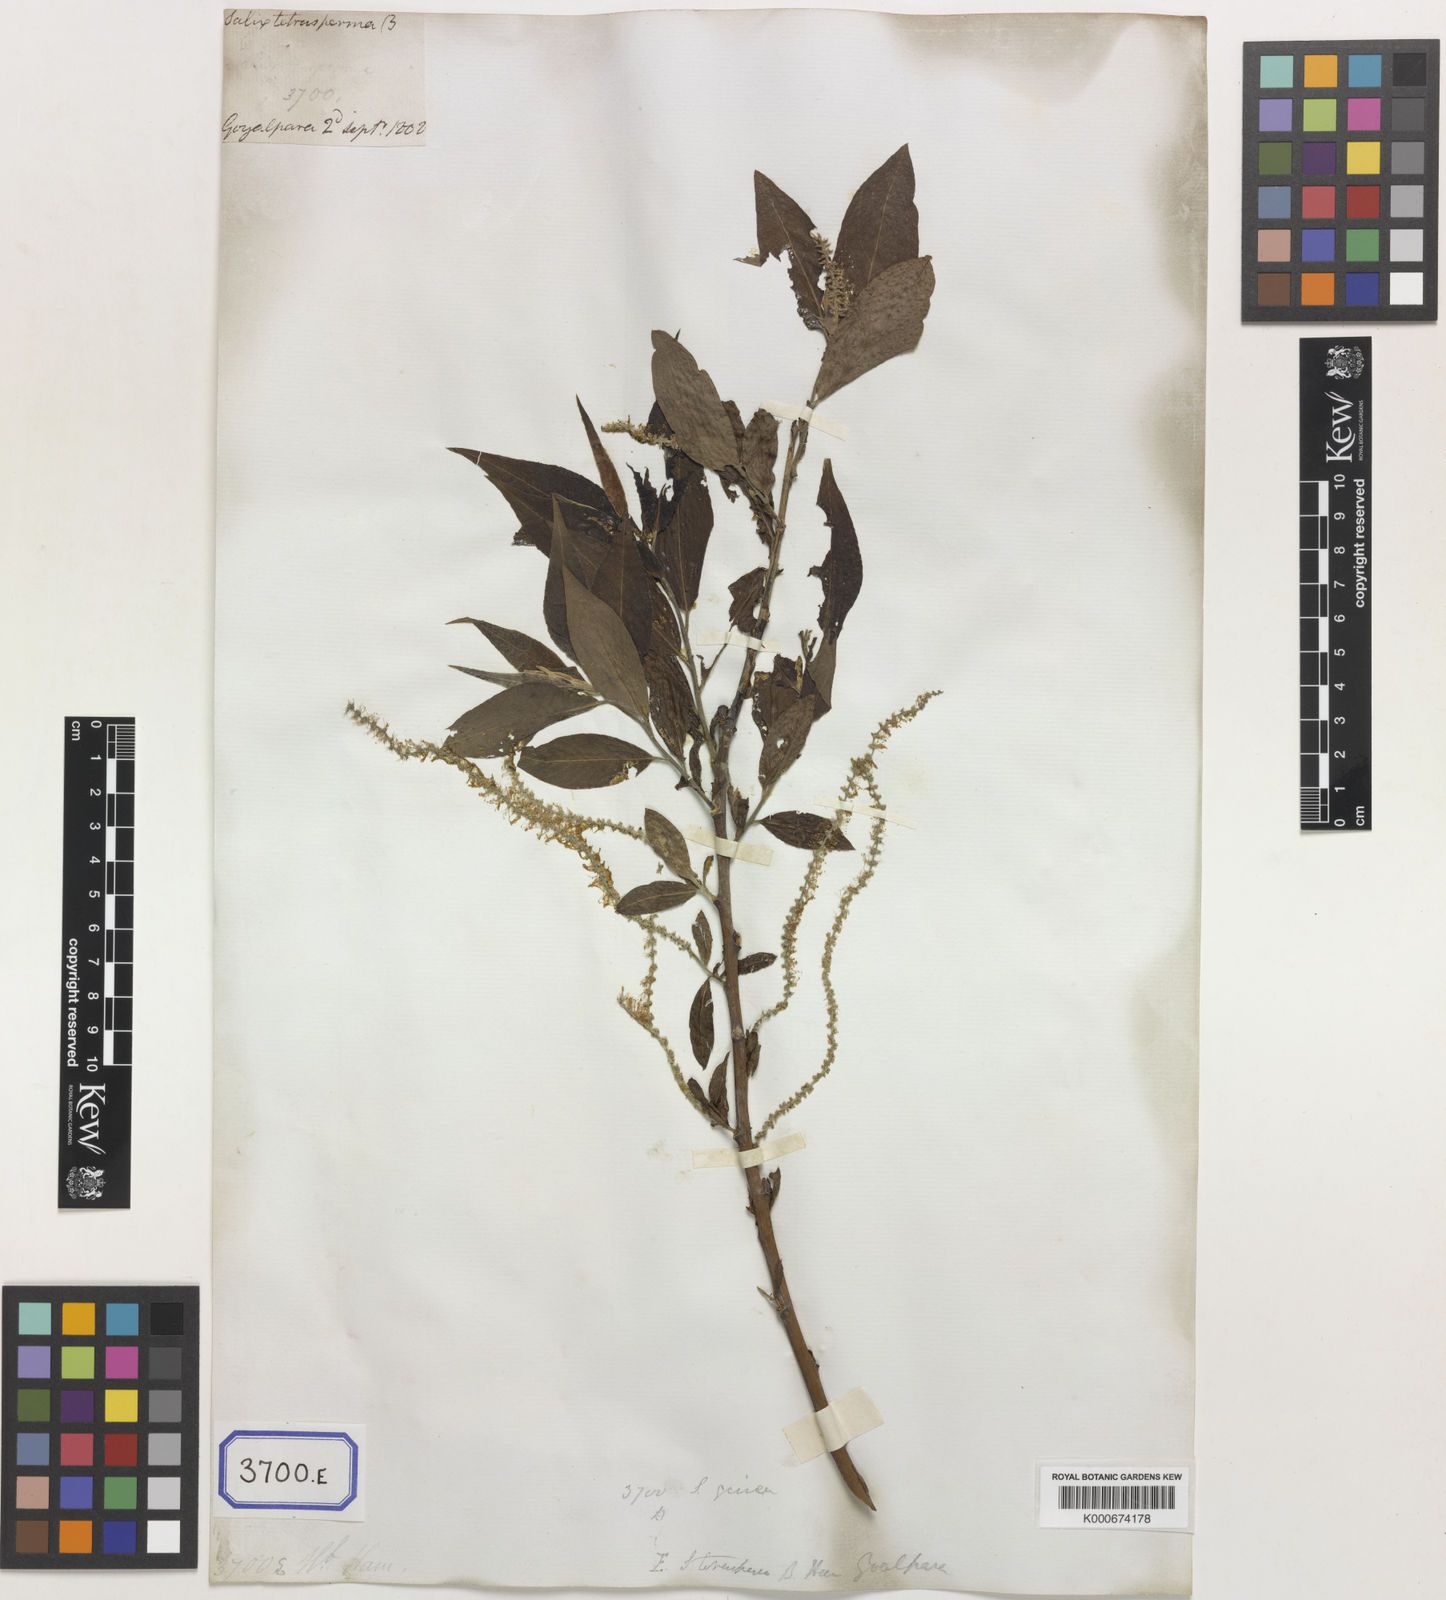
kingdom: Plantae
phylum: Tracheophyta
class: Magnoliopsida
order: Malpighiales
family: Salicaceae
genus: Salix
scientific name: Salix disperma
